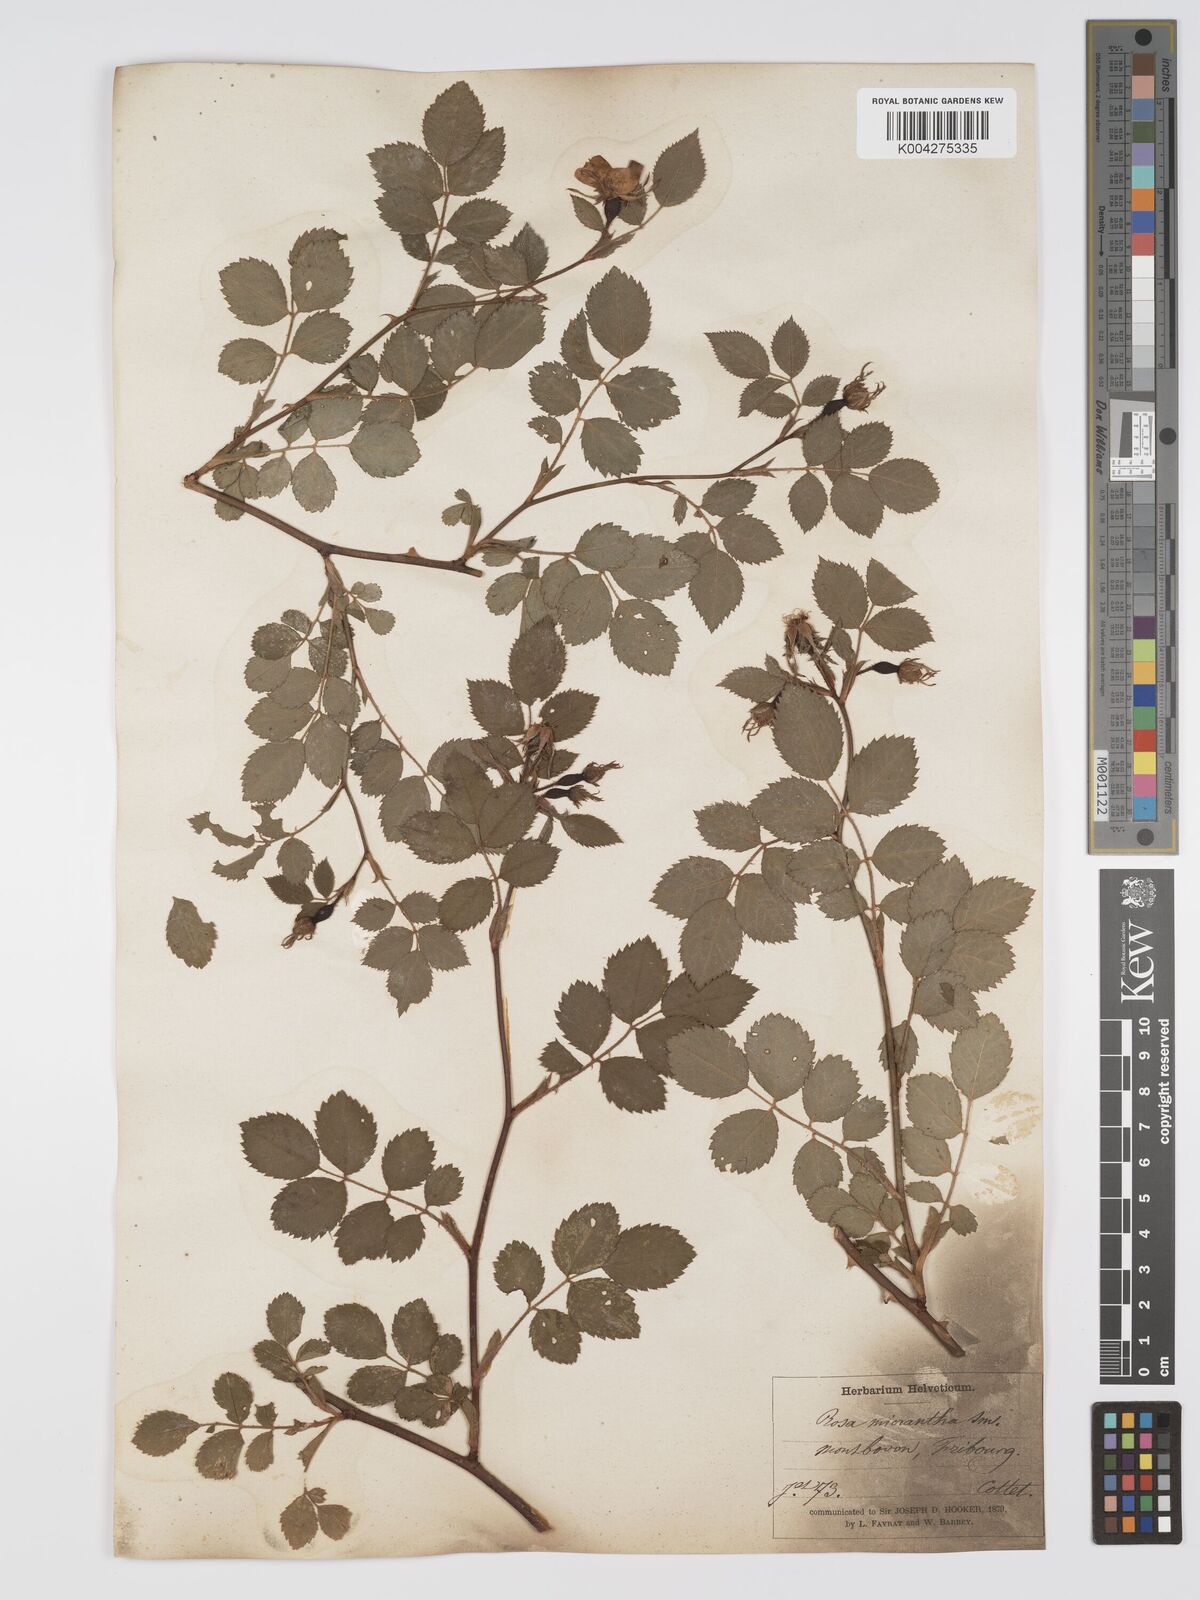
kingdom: Plantae
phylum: Tracheophyta
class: Magnoliopsida
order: Rosales
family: Rosaceae
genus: Rosa
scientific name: Rosa
